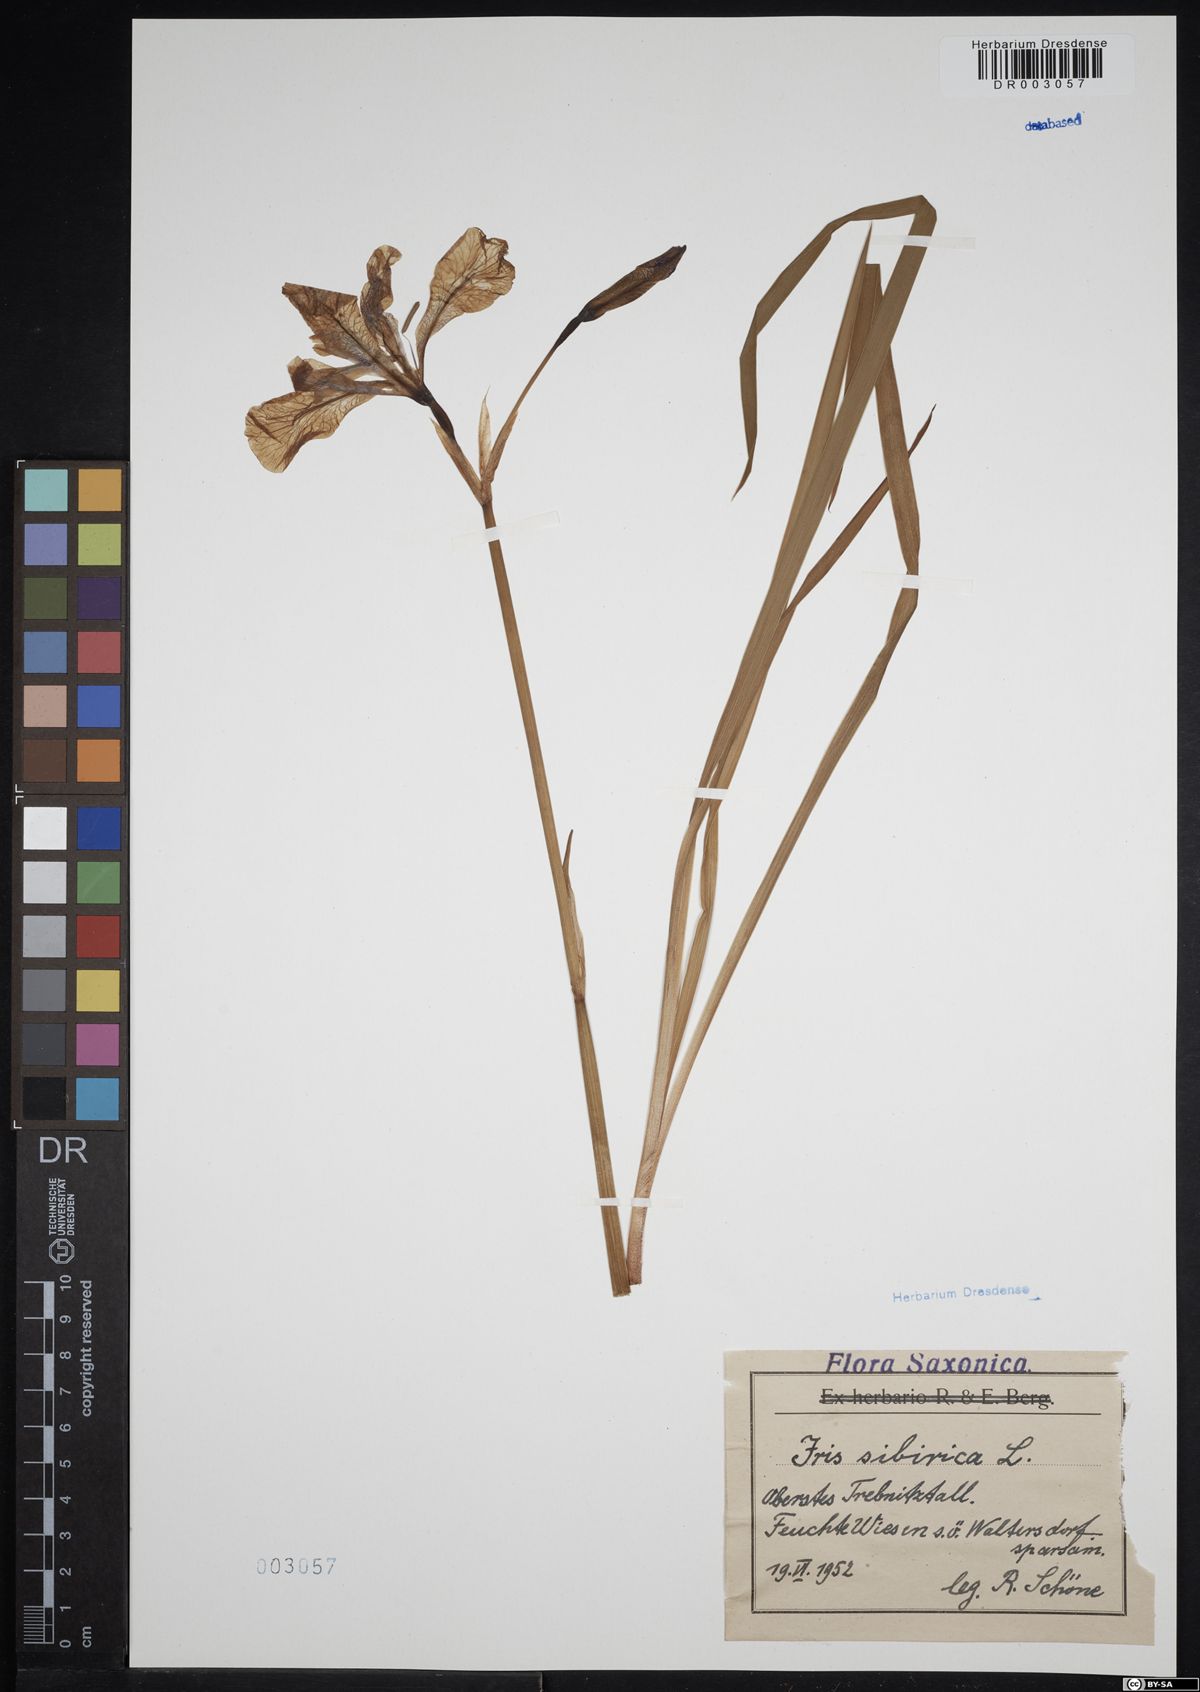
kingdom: Plantae
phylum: Tracheophyta
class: Liliopsida
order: Asparagales
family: Iridaceae
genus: Iris
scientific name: Iris sibirica
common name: Siberian iris
